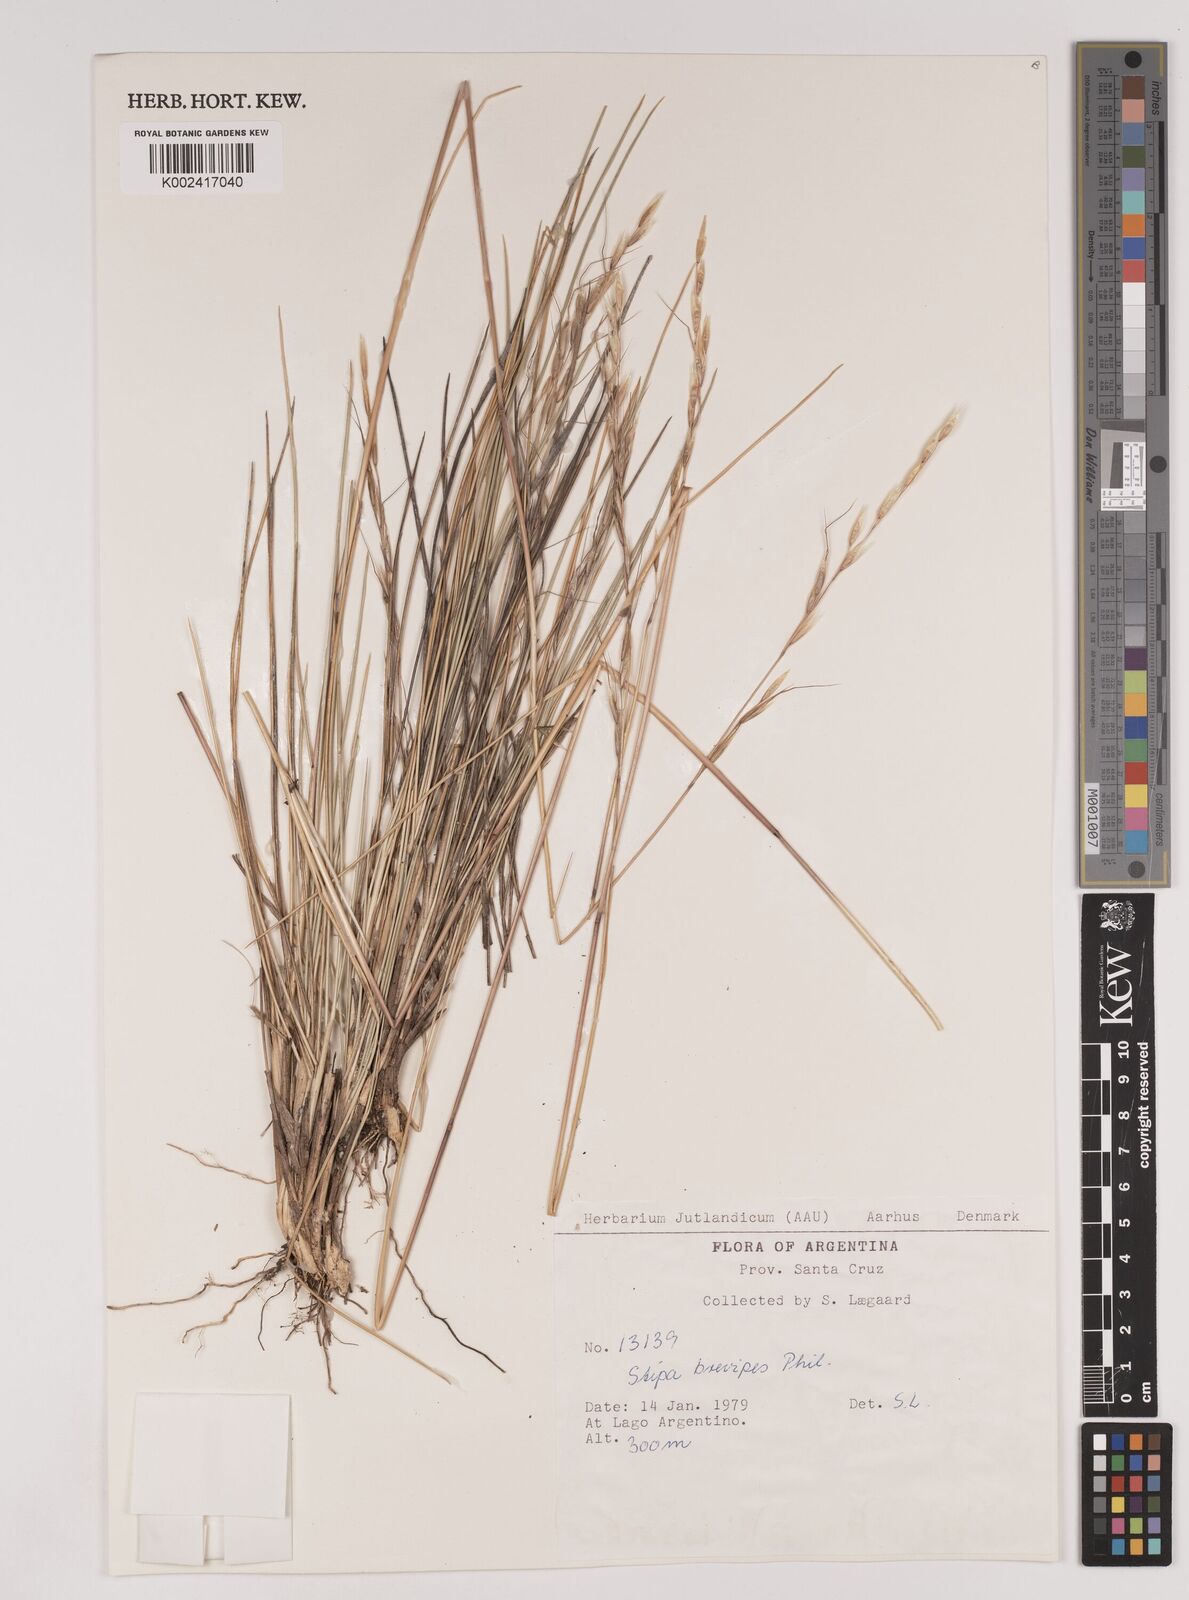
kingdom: Plantae
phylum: Tracheophyta
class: Liliopsida
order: Poales
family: Poaceae
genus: Amelichloa
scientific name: Amelichloa brevipes
